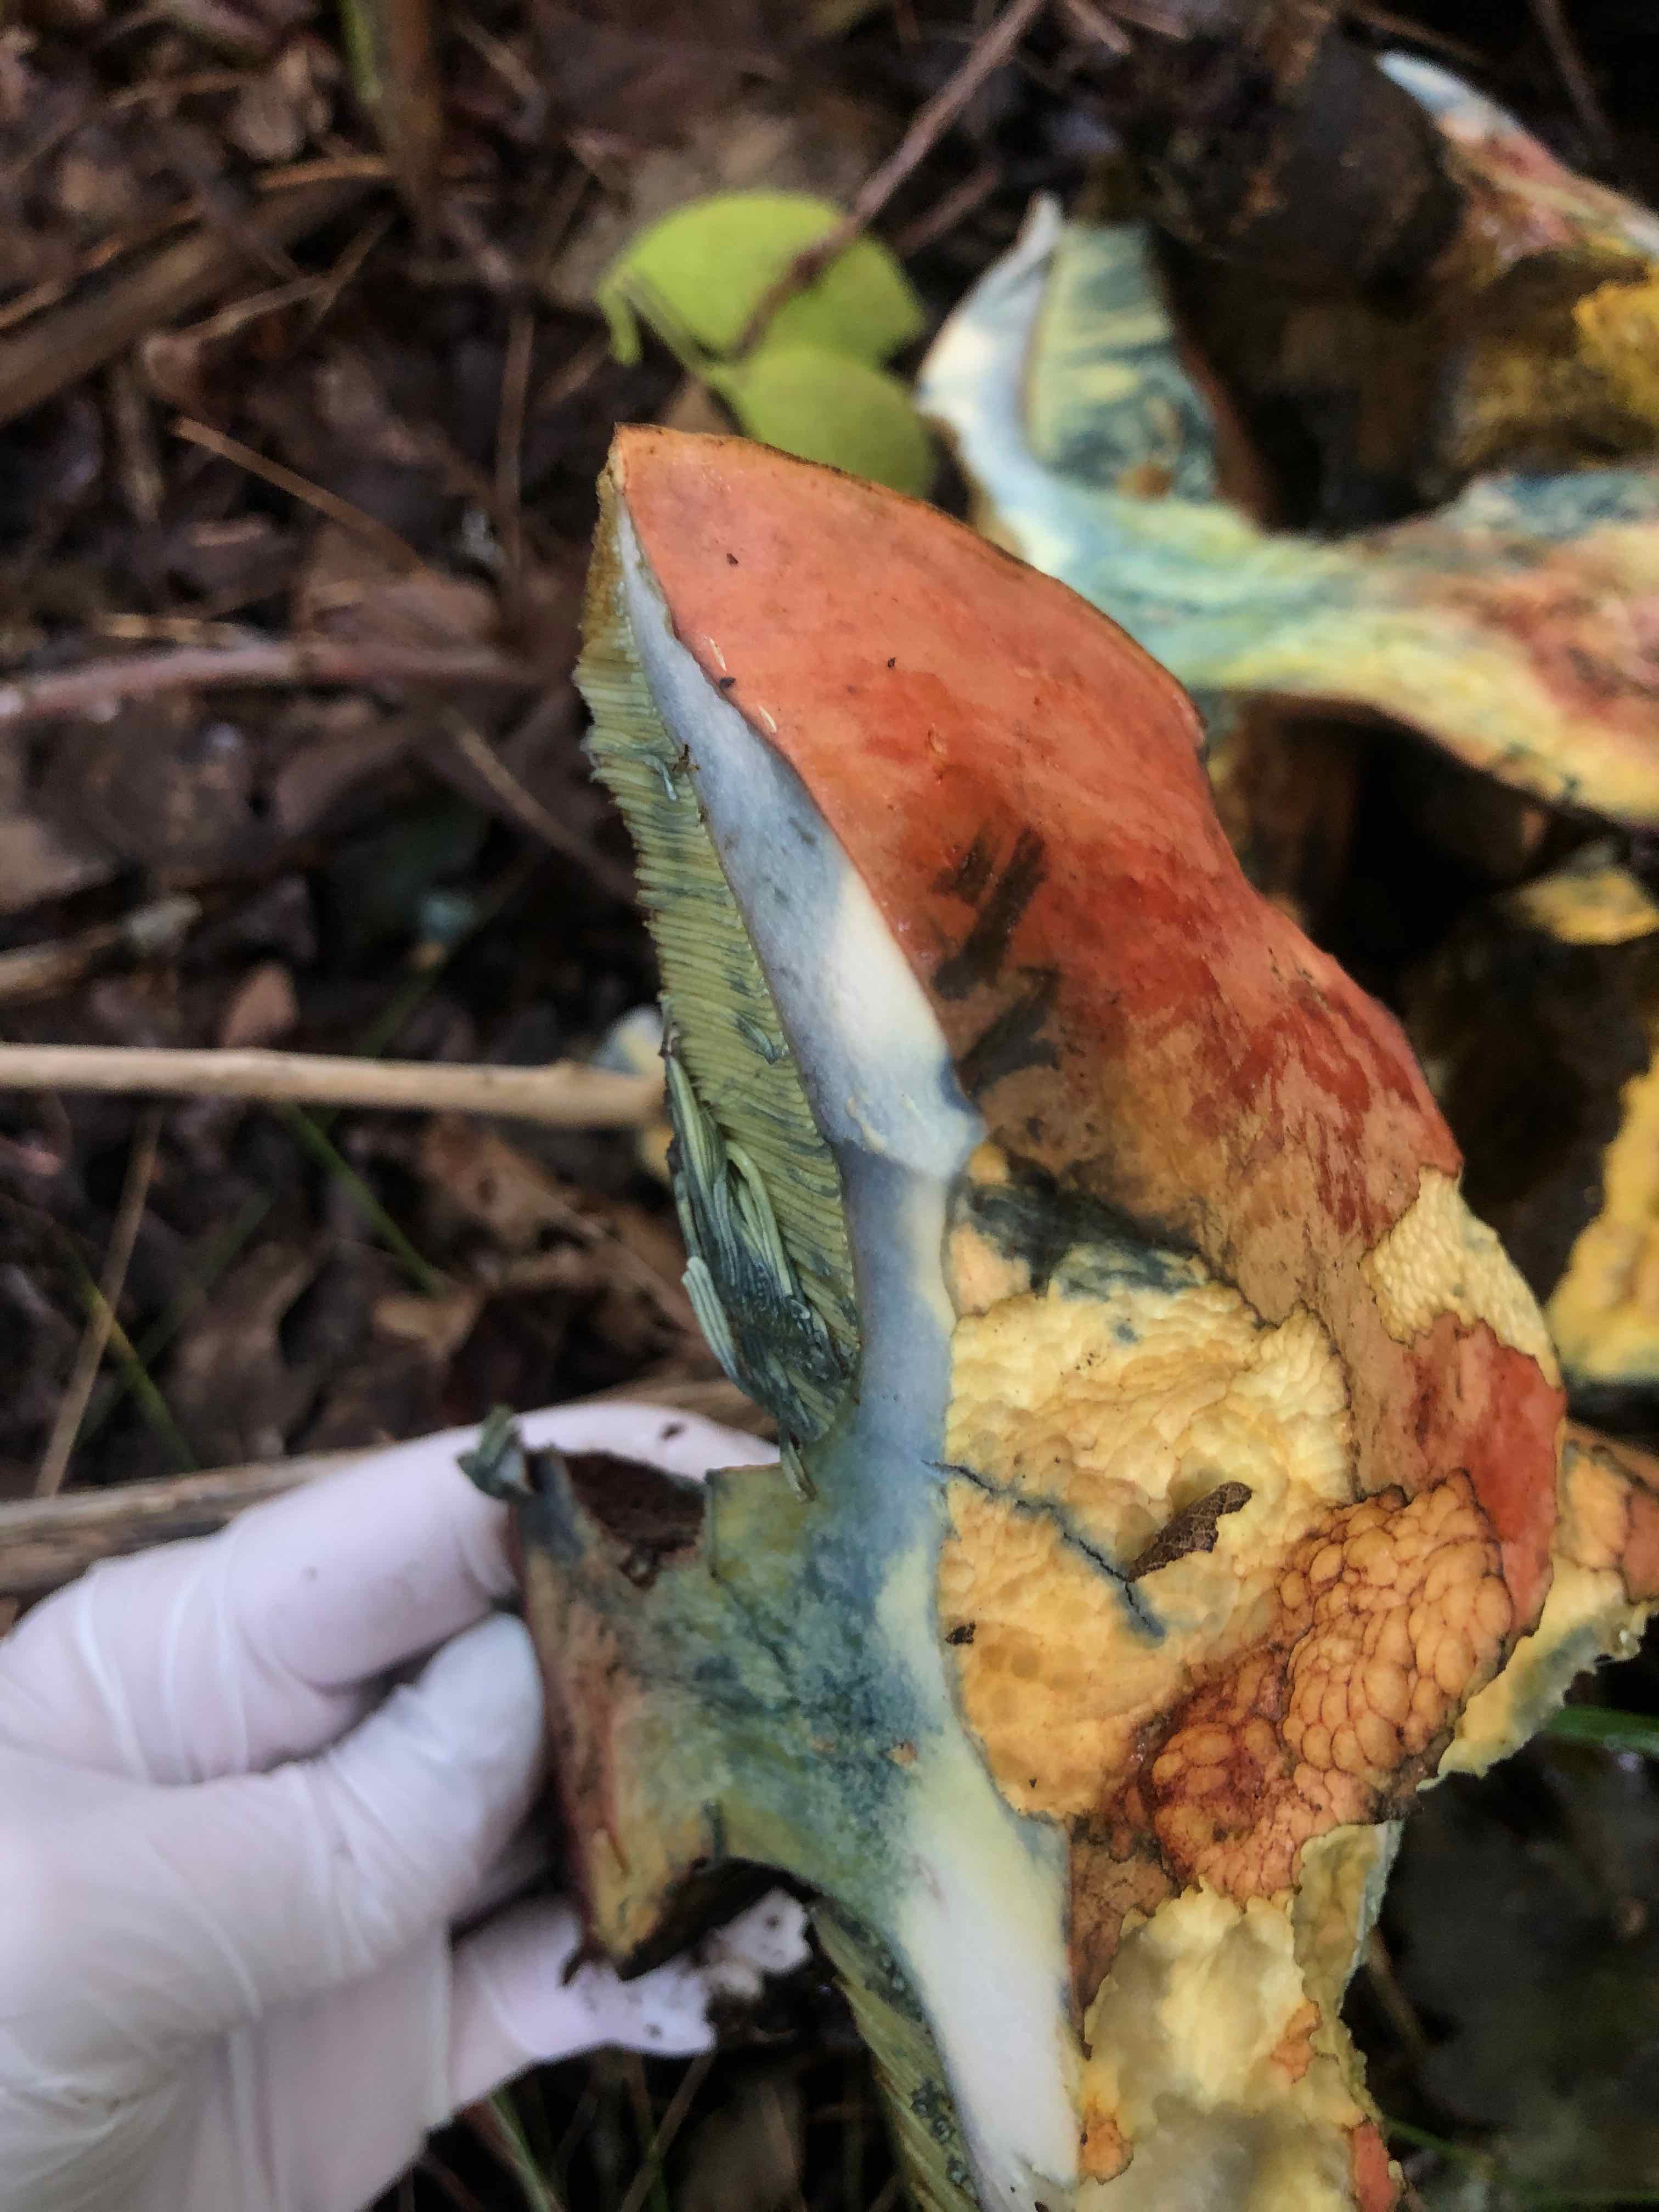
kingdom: Fungi
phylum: Basidiomycota
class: Agaricomycetes
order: Boletales
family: Boletaceae
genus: Suillellus
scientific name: Suillellus luridus
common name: netstokket indigorørhat
